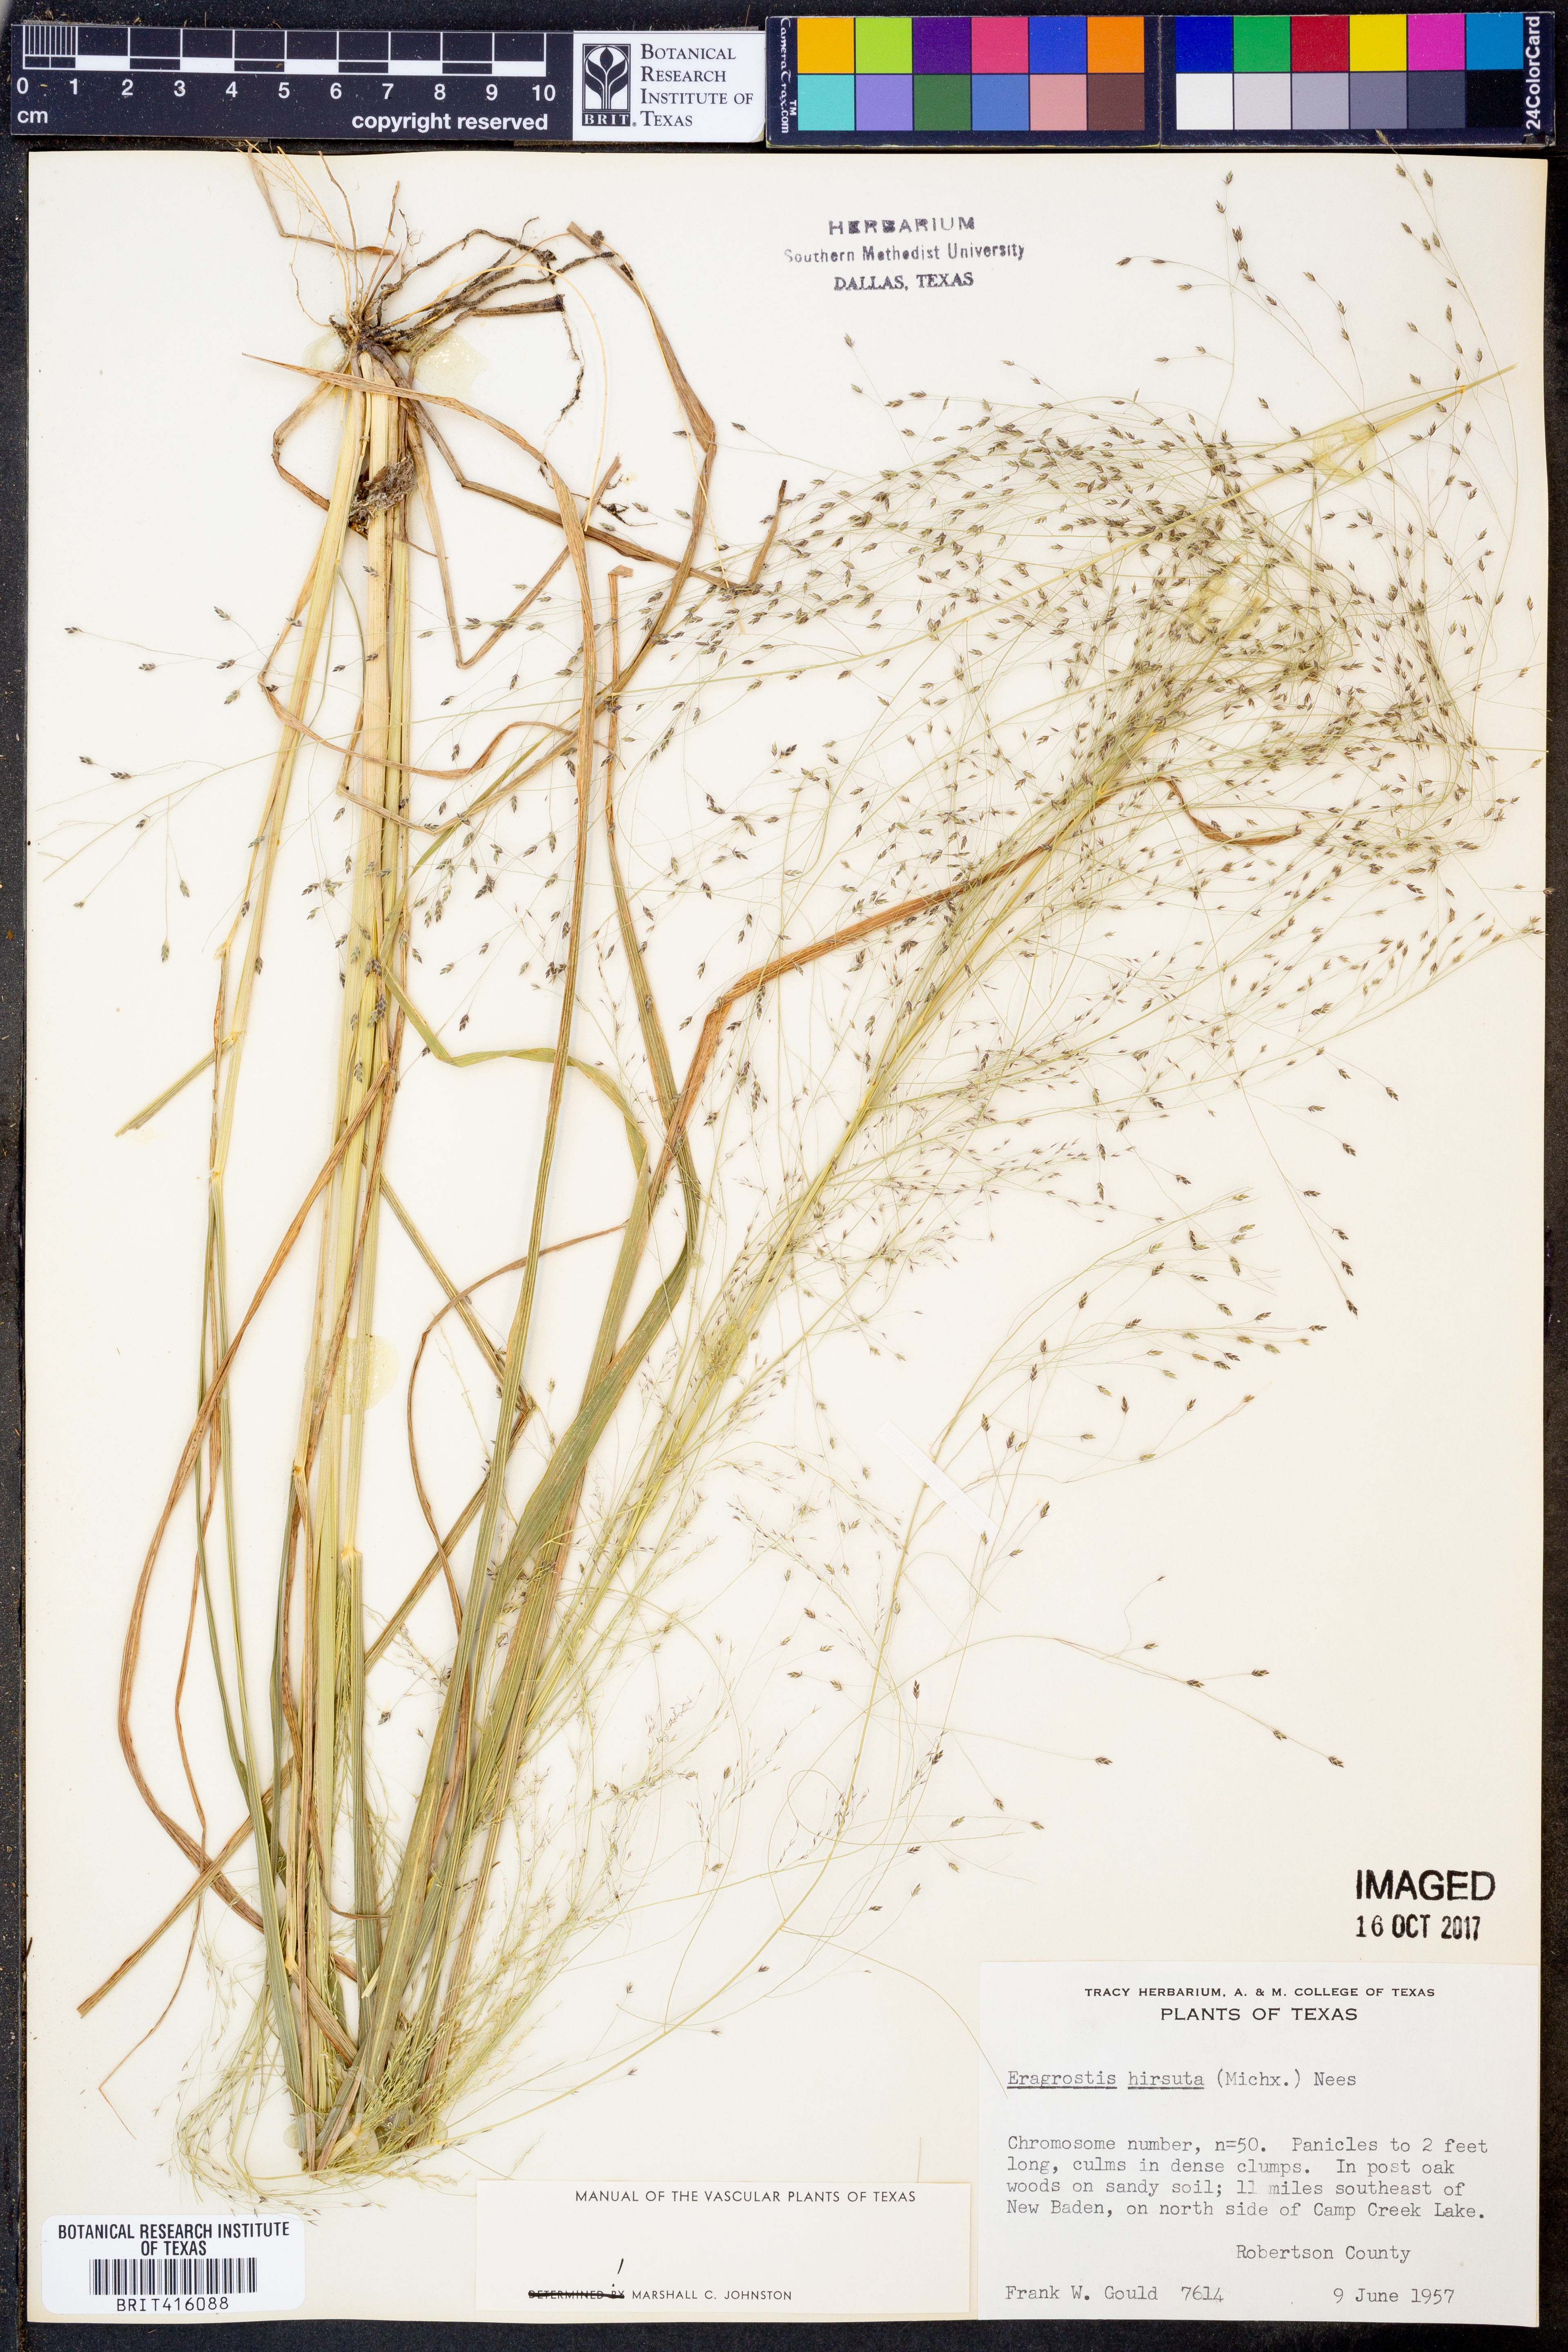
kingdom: Plantae
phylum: Tracheophyta
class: Liliopsida
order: Poales
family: Poaceae
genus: Eragrostis
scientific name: Eragrostis hirsuta
